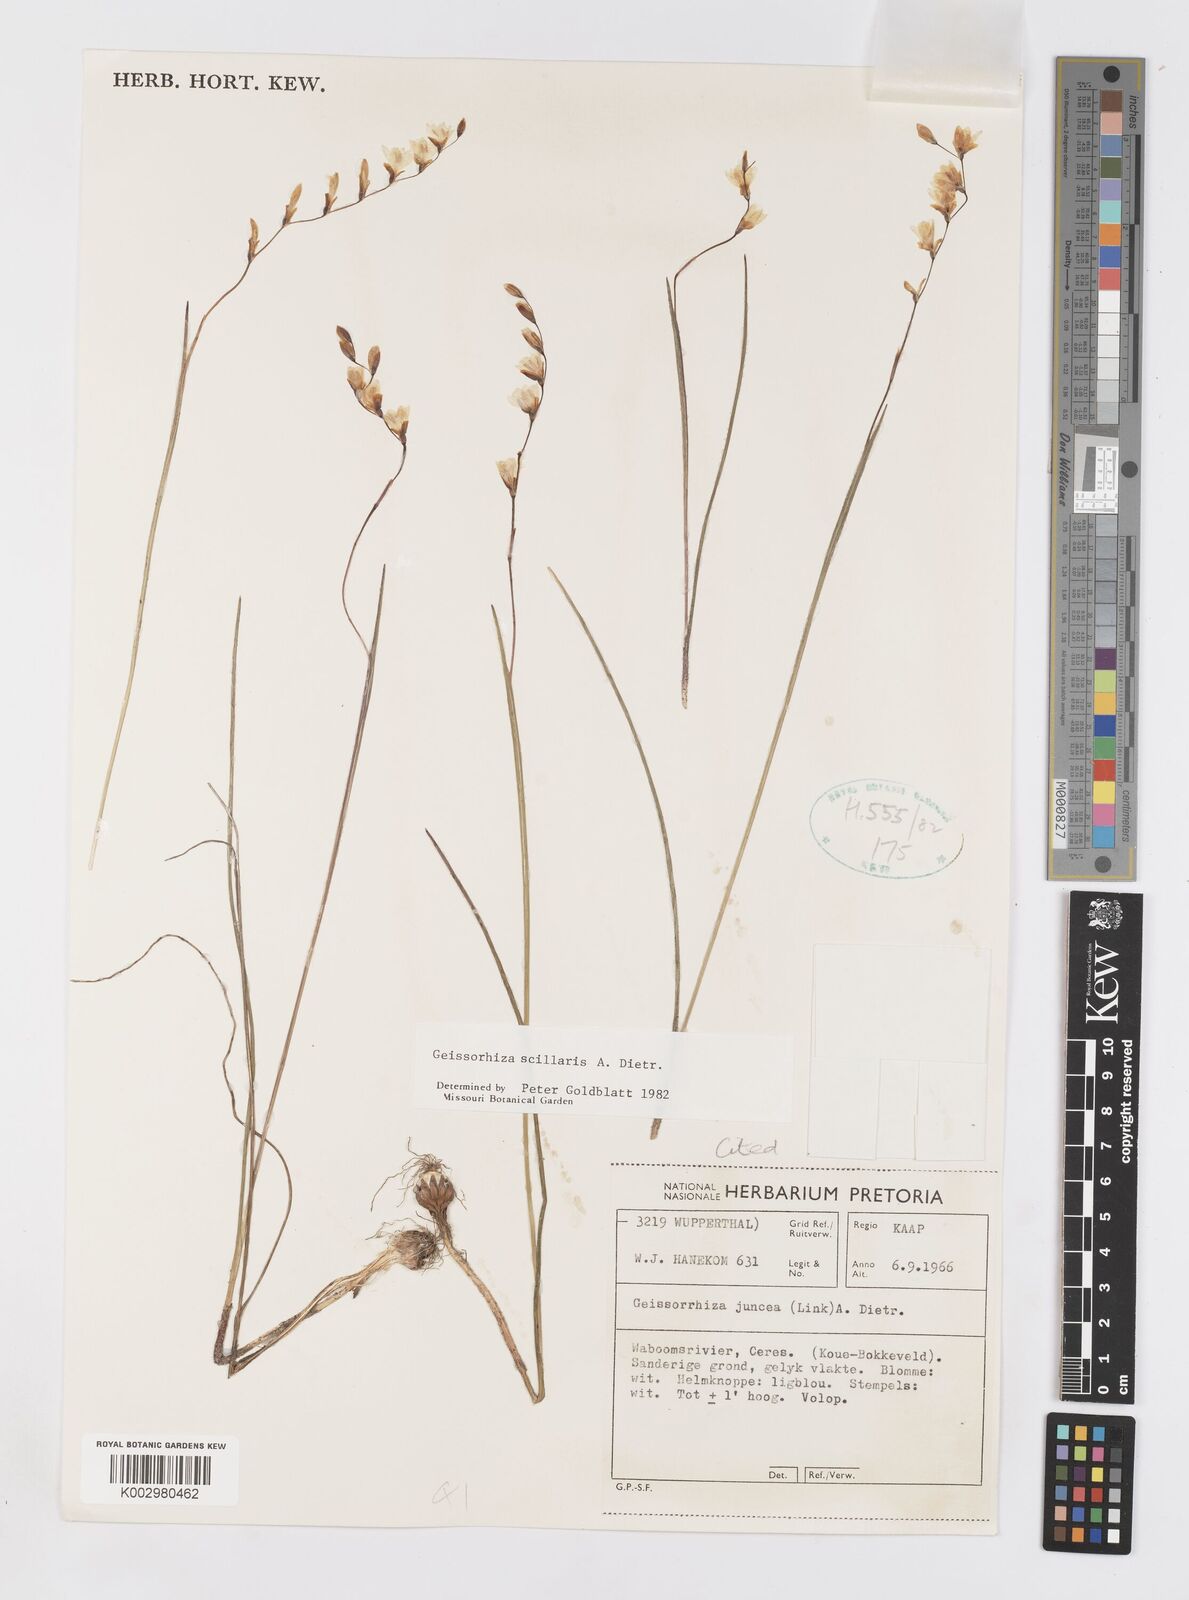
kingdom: Plantae
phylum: Tracheophyta
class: Liliopsida
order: Asparagales
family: Iridaceae
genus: Geissorhiza
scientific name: Geissorhiza scillaris
